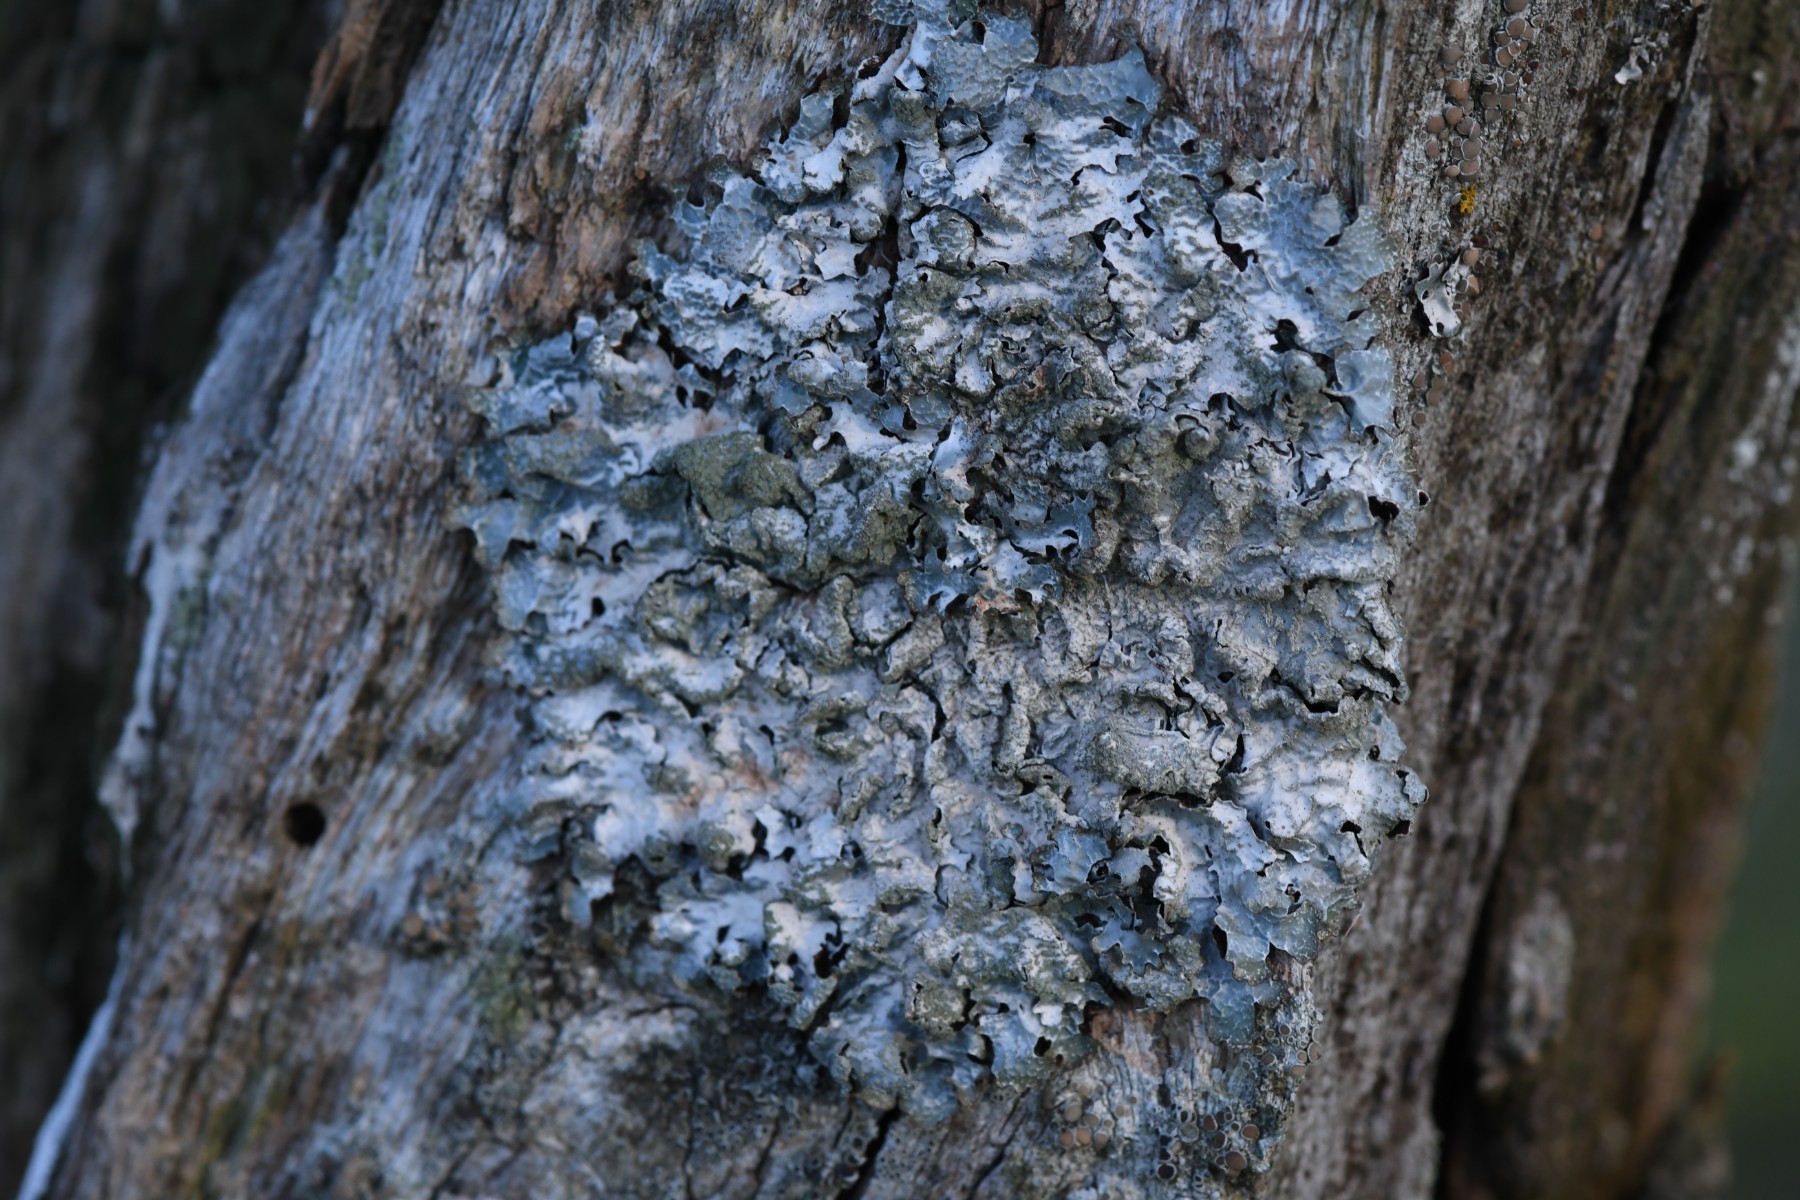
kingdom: Fungi
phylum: Ascomycota
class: Lecanoromycetes
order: Lecanorales
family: Parmeliaceae
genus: Parmelia
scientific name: Parmelia sulcata
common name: rynket skållav
